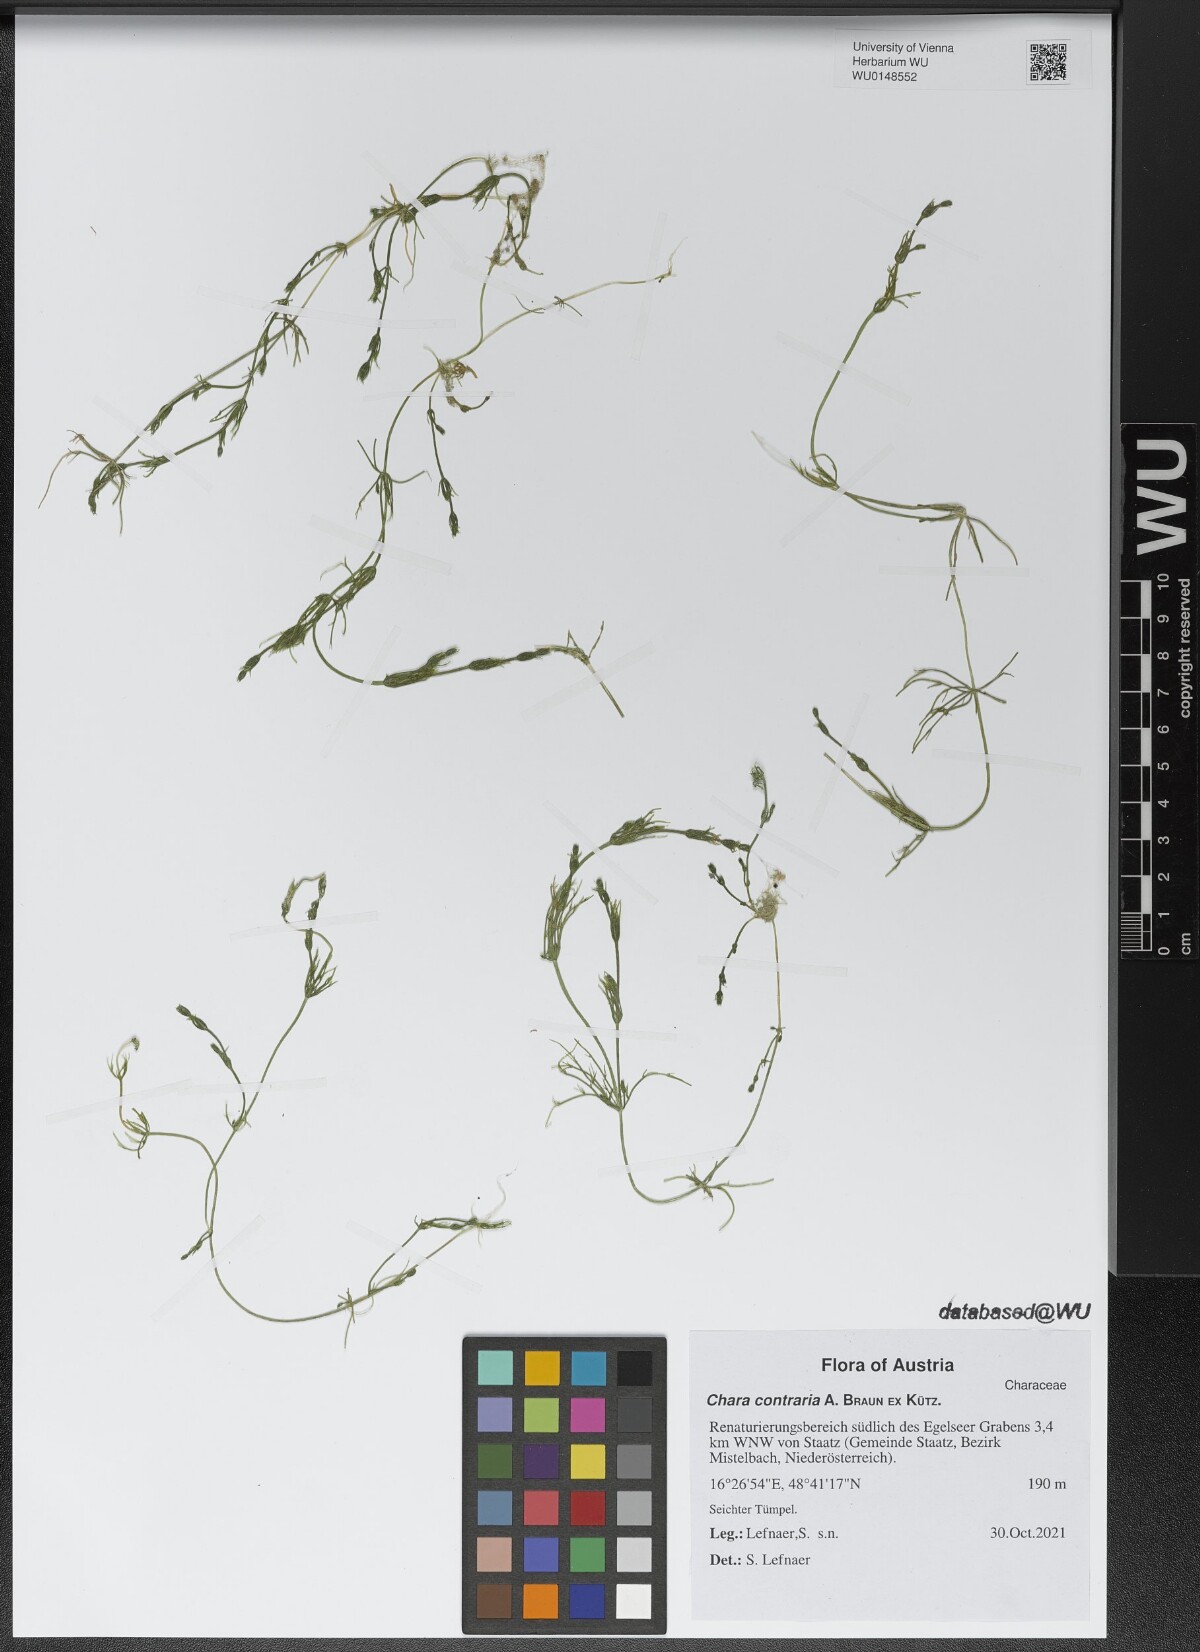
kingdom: Plantae
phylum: Charophyta
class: Charophyceae
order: Charales
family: Characeae
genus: Chara
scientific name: Chara contraria
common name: Opposite stonewort
